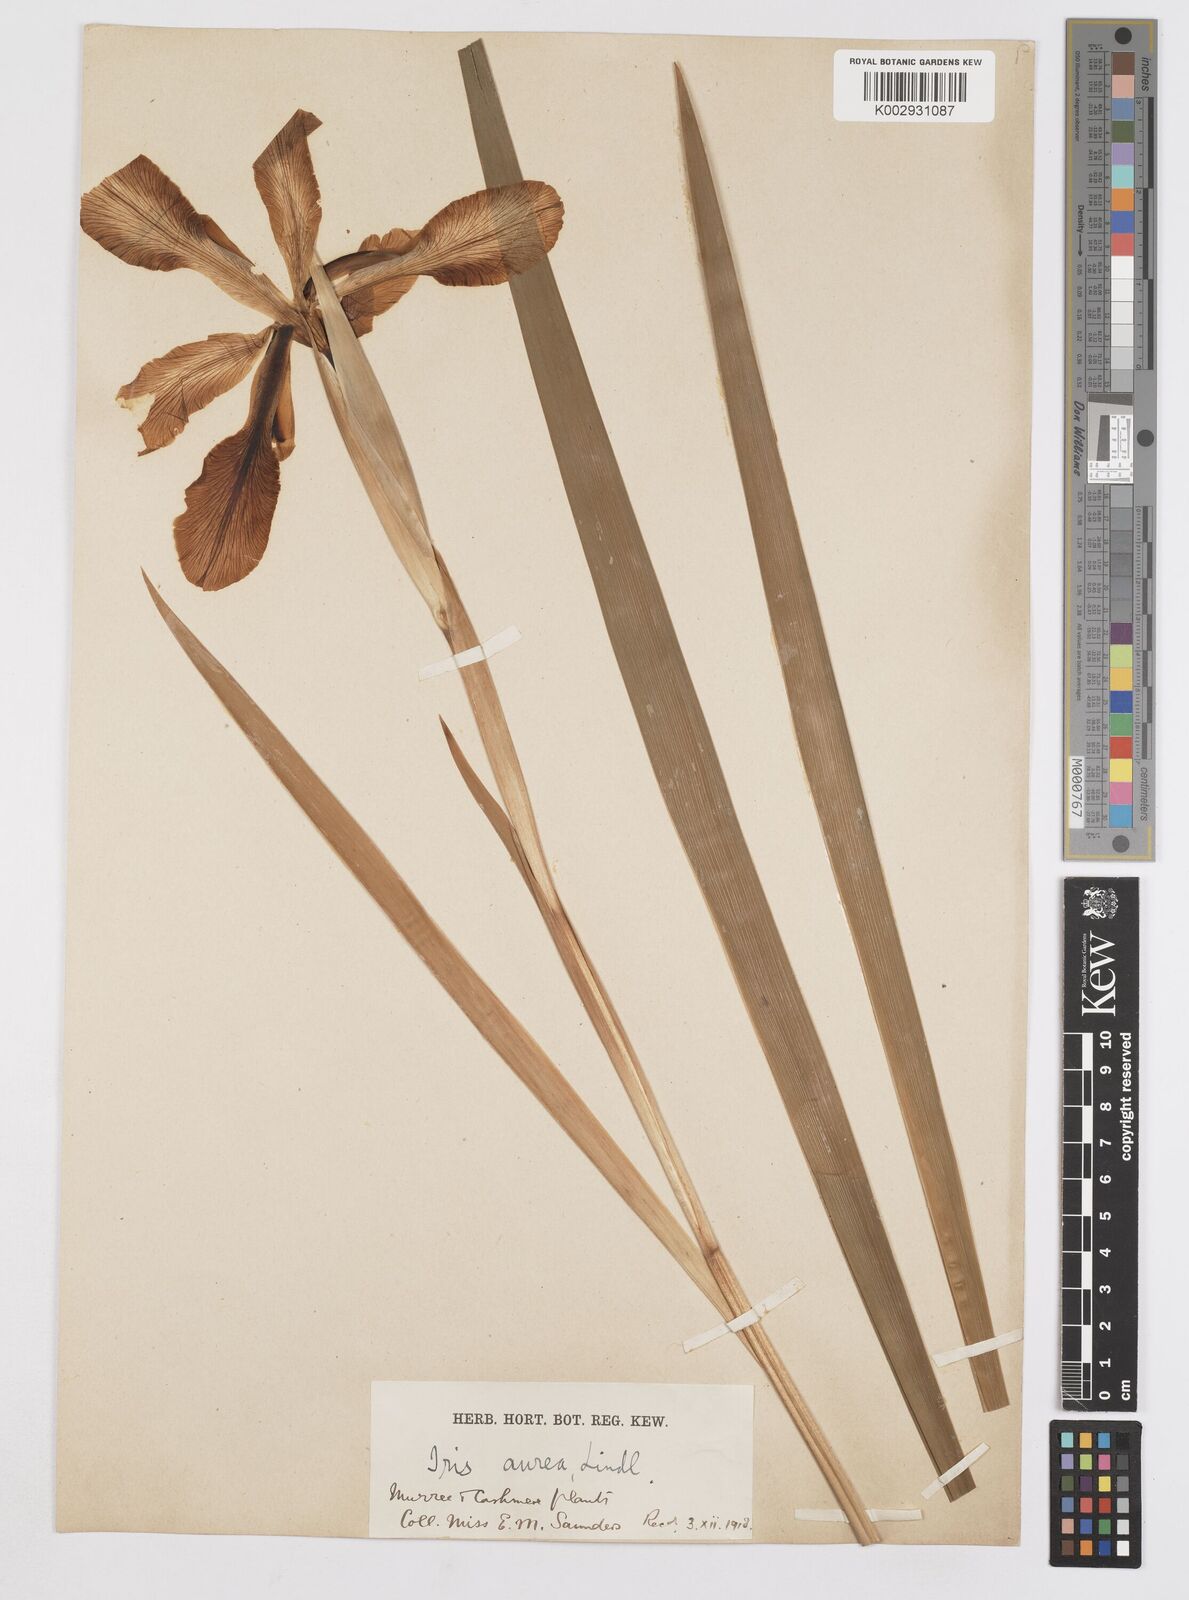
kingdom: Plantae
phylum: Tracheophyta
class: Liliopsida
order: Asparagales
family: Iridaceae
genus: Iris
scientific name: Iris crocea
